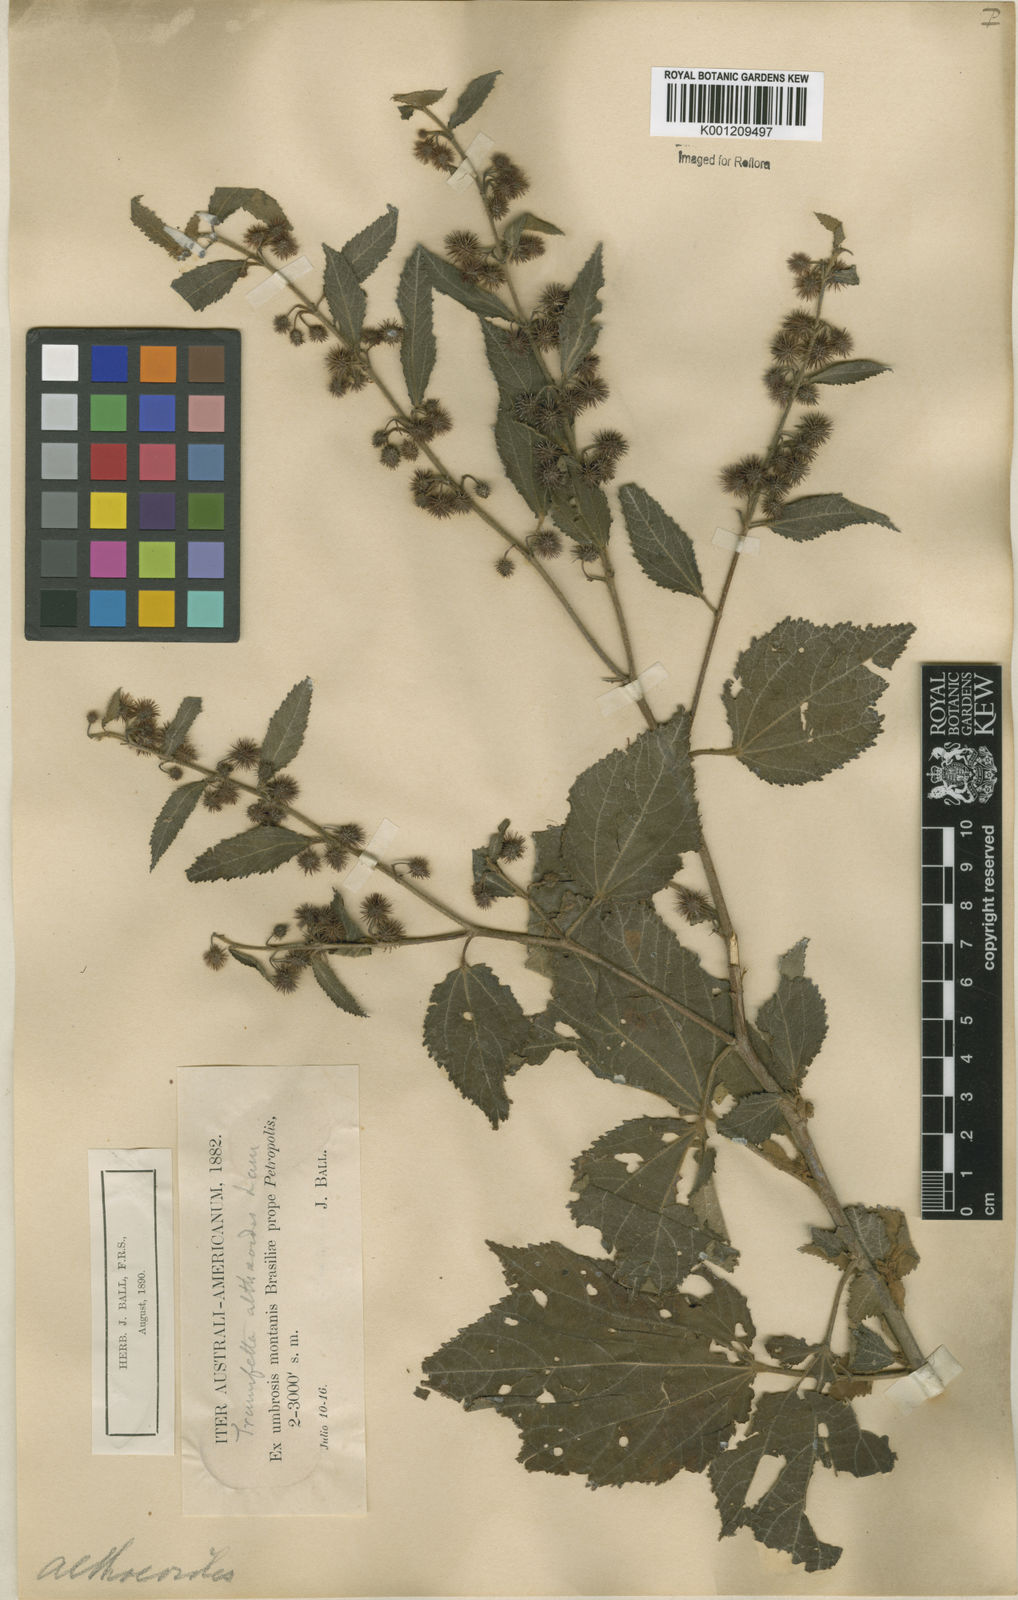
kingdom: Plantae
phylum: Tracheophyta
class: Magnoliopsida
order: Malvales
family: Malvaceae
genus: Triumfetta
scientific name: Triumfetta althaeoides
